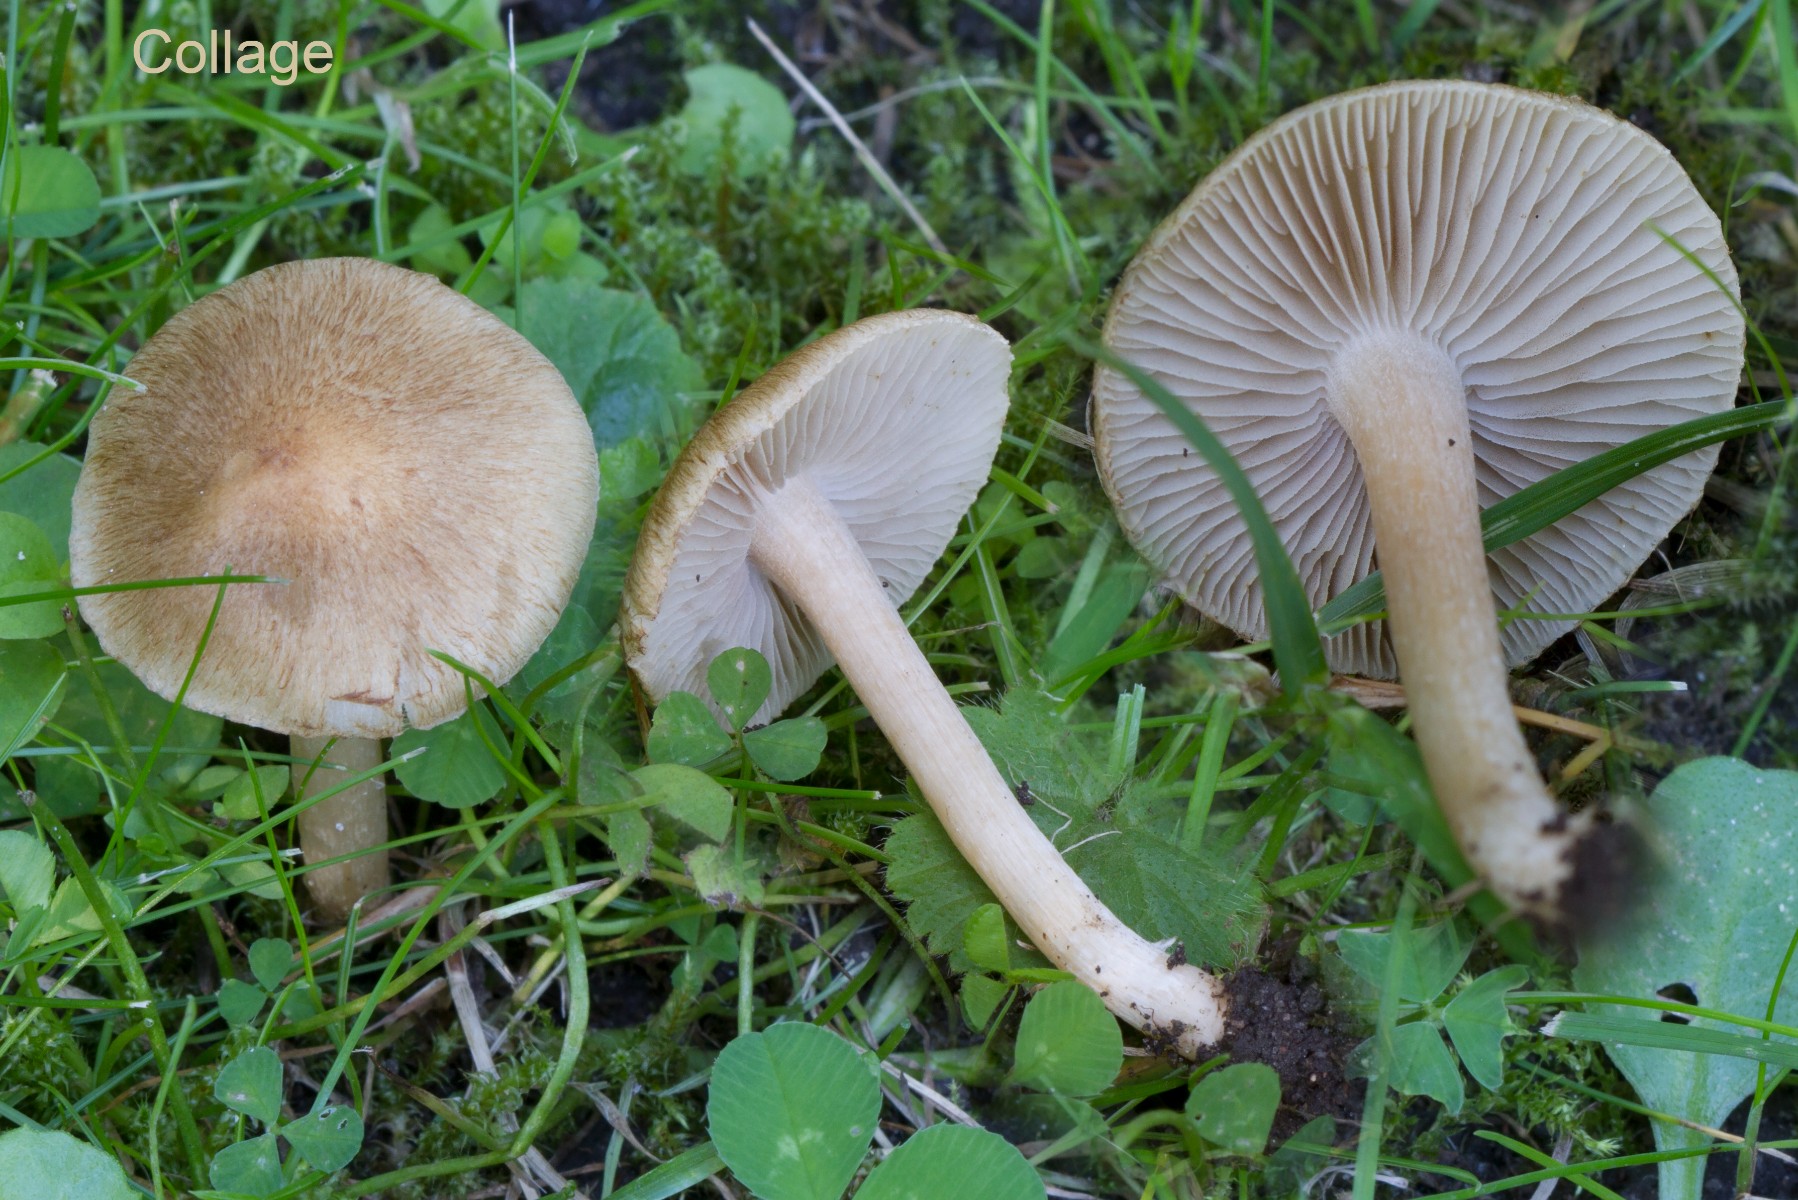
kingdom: Fungi
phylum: Basidiomycota
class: Agaricomycetes
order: Agaricales
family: Inocybaceae
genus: Inocybe
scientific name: Inocybe
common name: trævlhat
